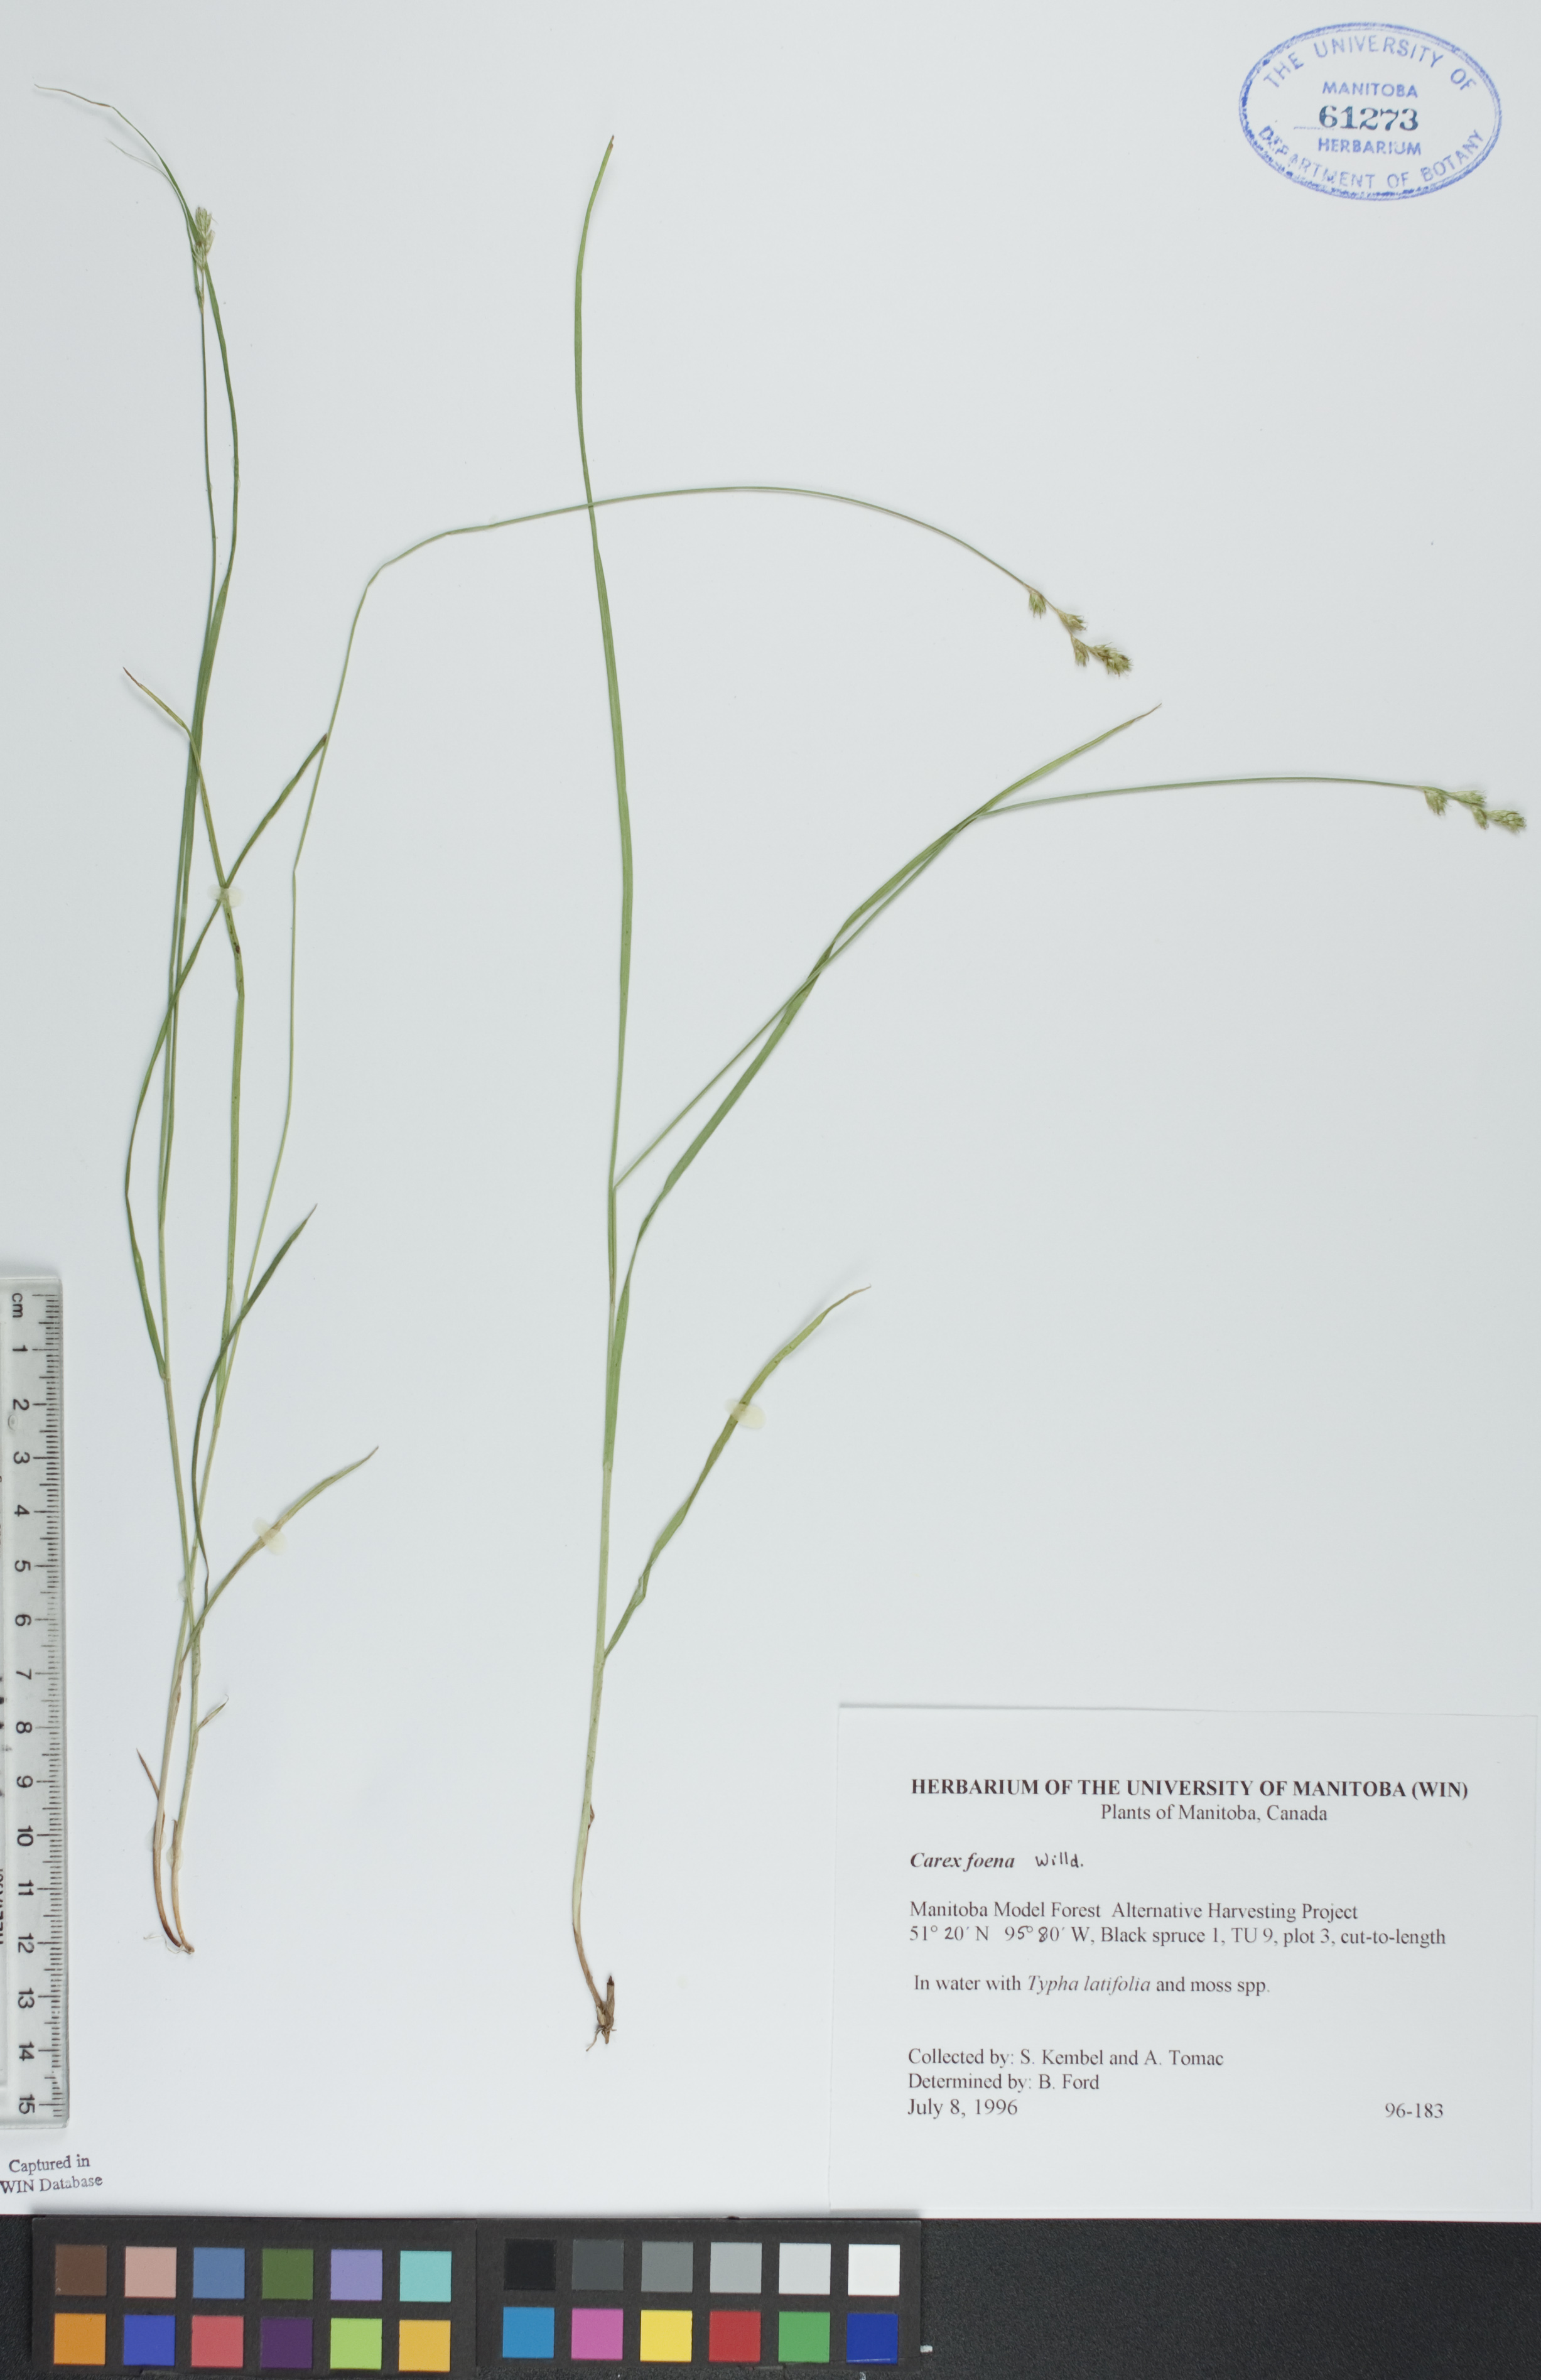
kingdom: Plantae
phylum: Tracheophyta
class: Liliopsida
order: Poales
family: Cyperaceae
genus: Carex
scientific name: Carex foenea
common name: Bronze sedge
